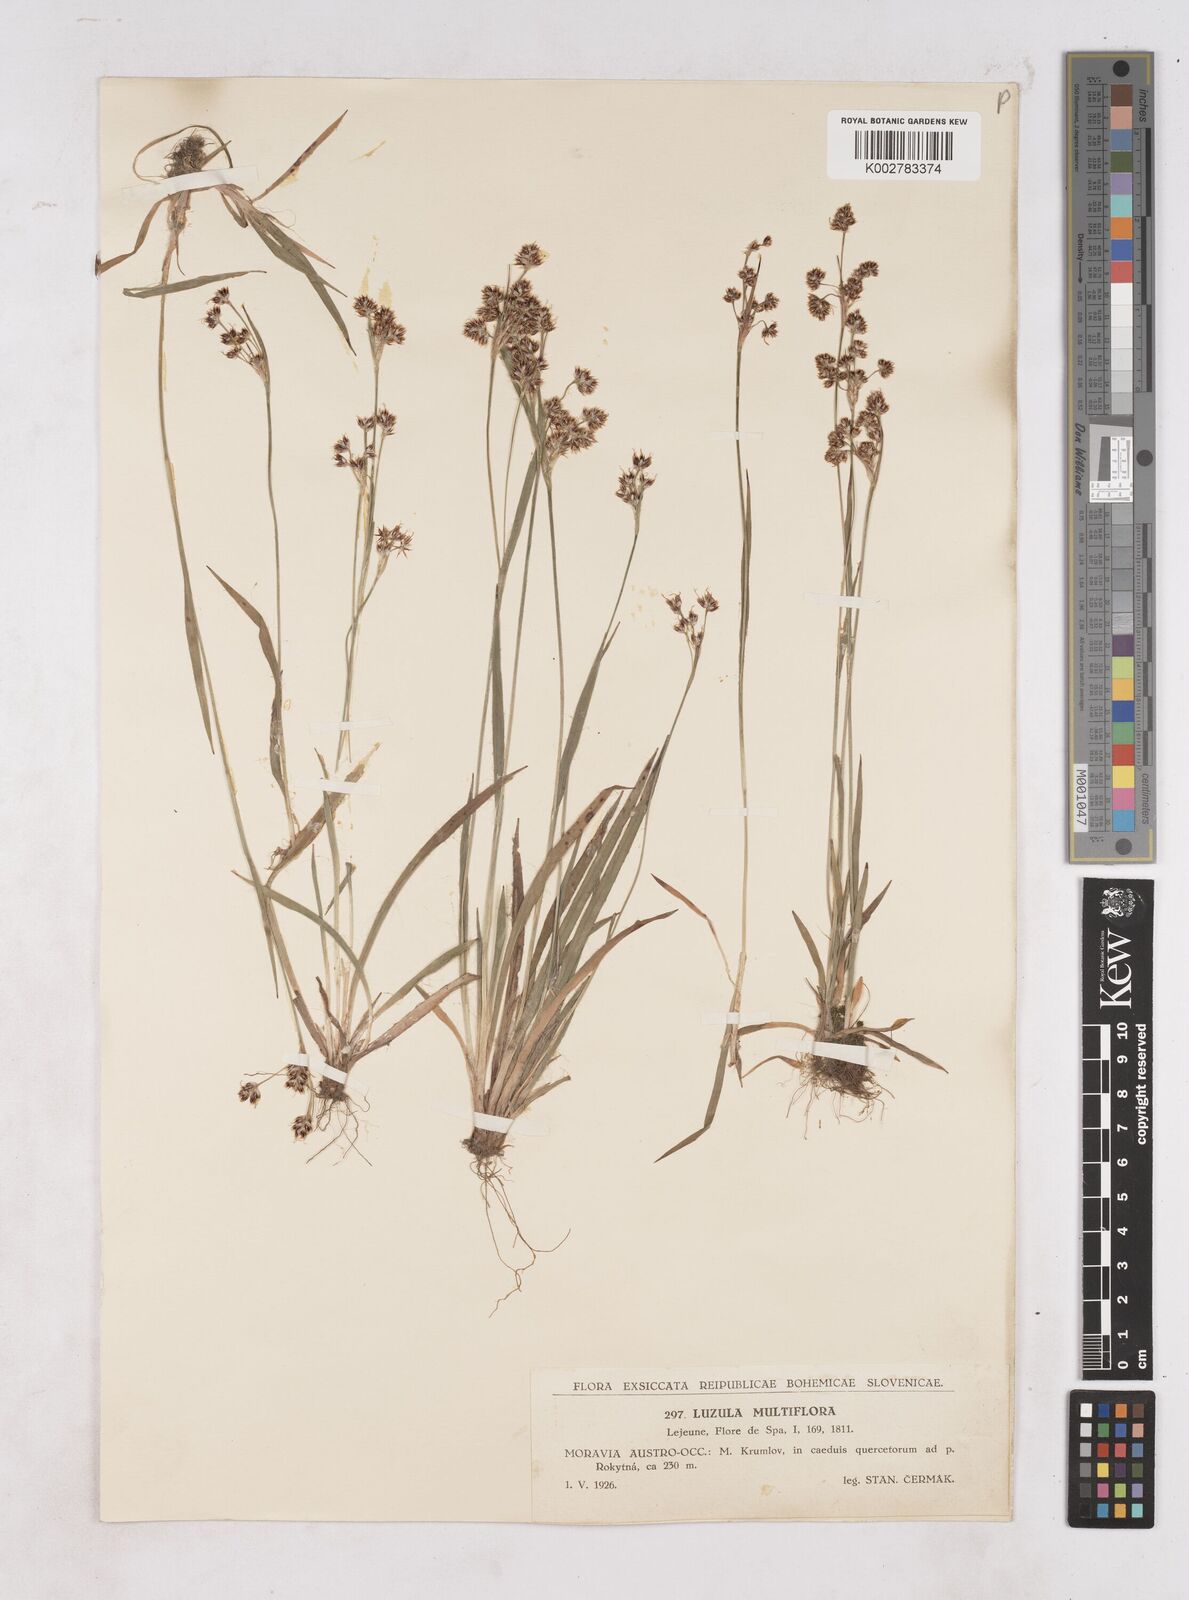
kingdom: Plantae
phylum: Tracheophyta
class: Liliopsida
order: Poales
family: Juncaceae
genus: Luzula
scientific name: Luzula multiflora
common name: Heath wood-rush
